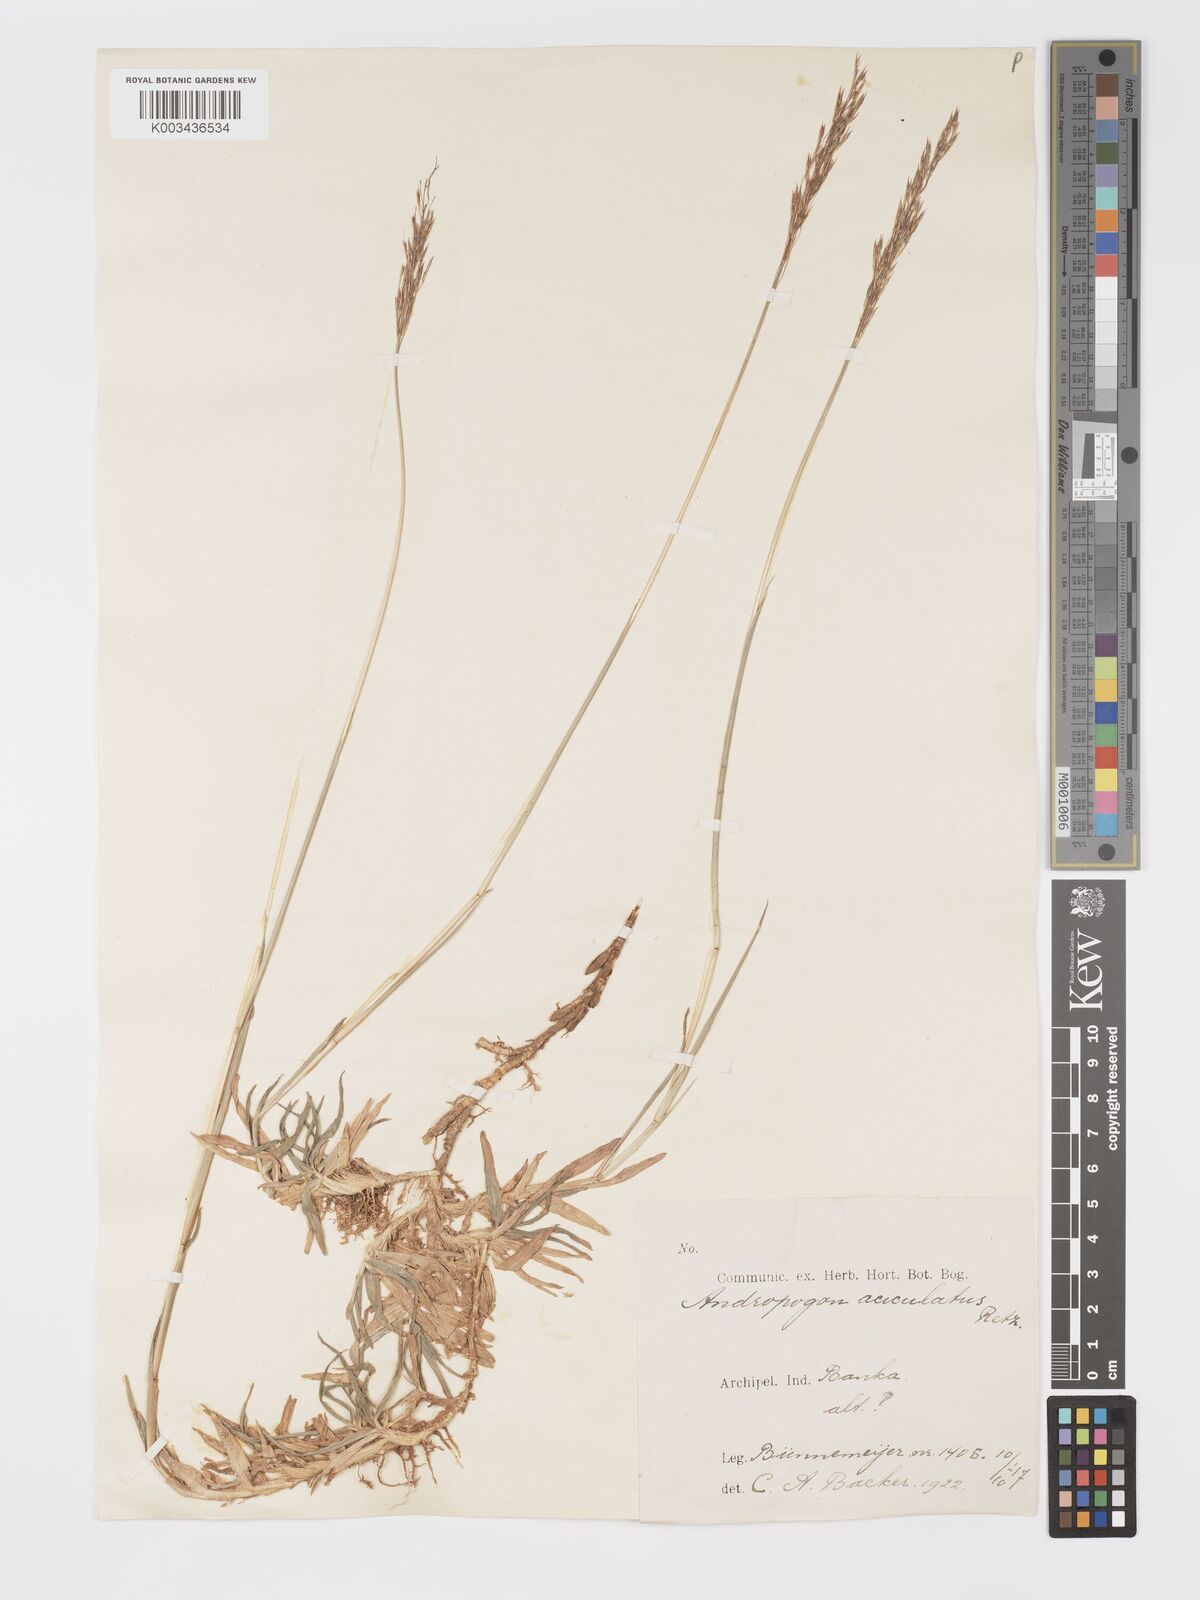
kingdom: Plantae
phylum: Tracheophyta
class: Liliopsida
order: Poales
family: Poaceae
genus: Chrysopogon
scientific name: Chrysopogon aciculatus
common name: Pilipiliula
